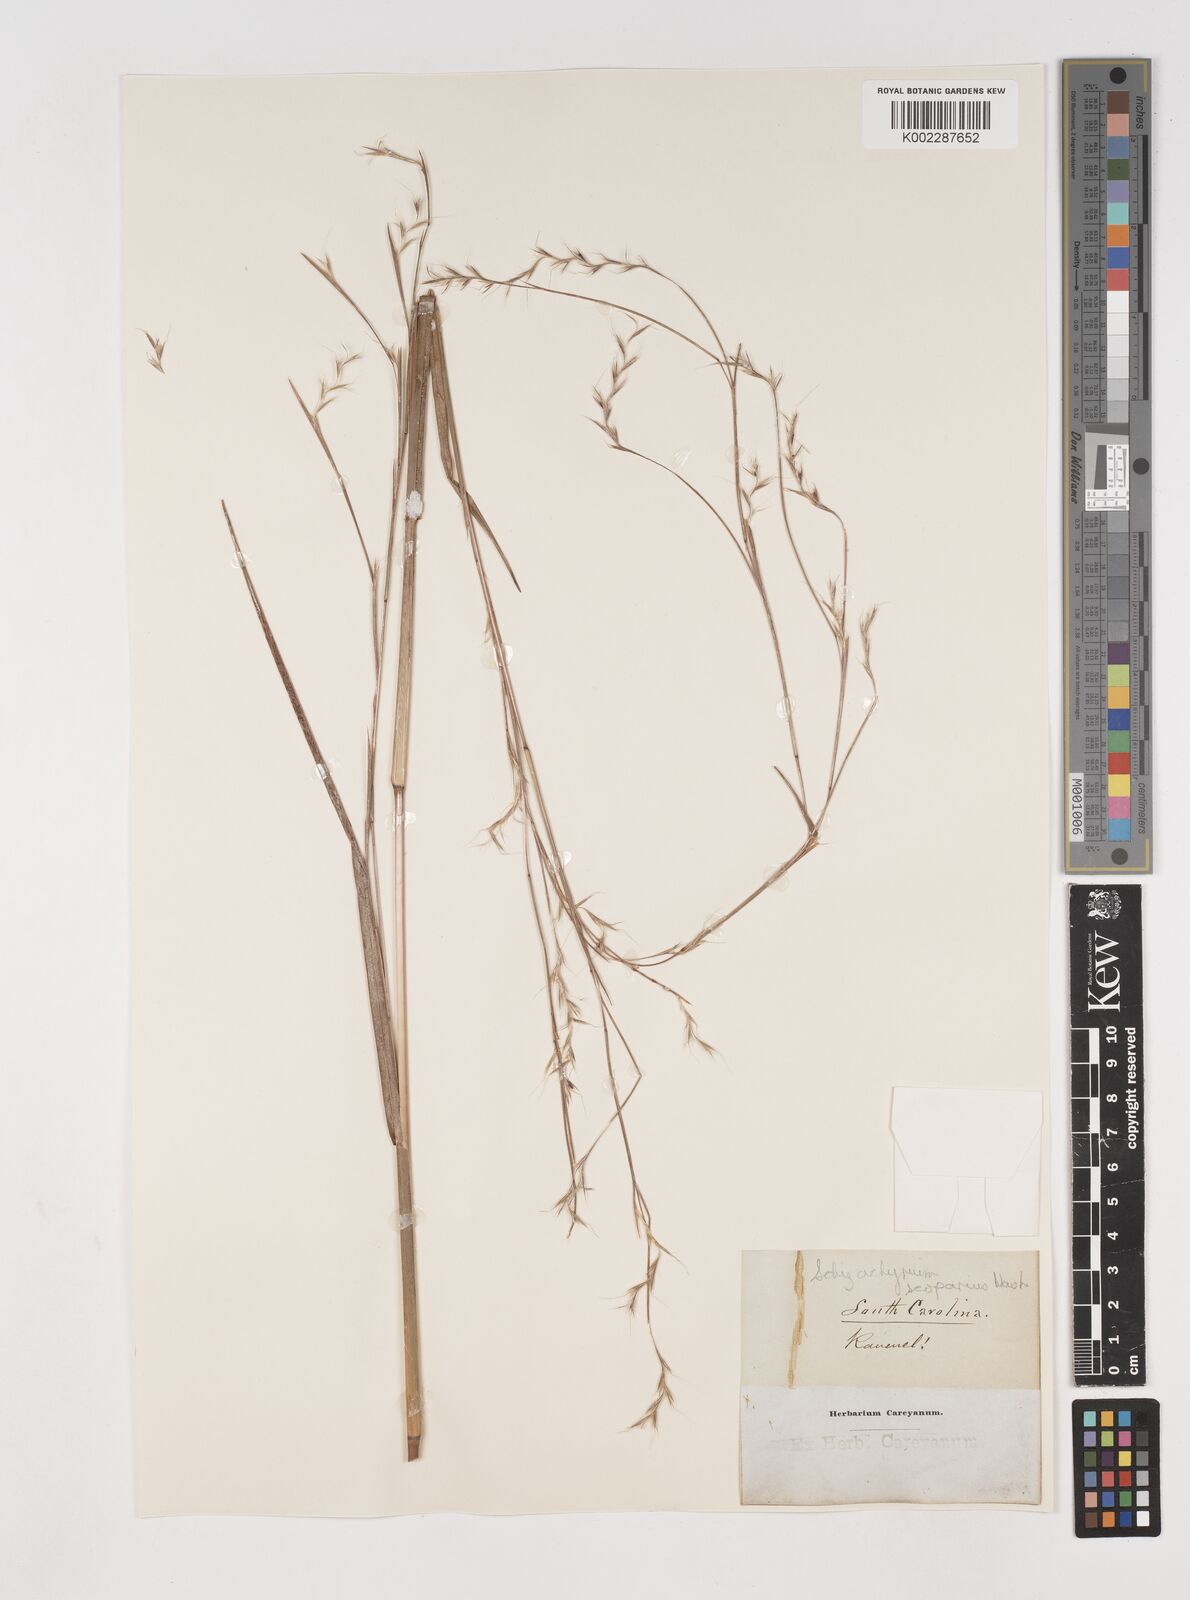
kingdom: Plantae
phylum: Tracheophyta
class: Liliopsida
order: Poales
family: Poaceae
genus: Schizachyrium
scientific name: Schizachyrium scoparium
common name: Little bluestem
